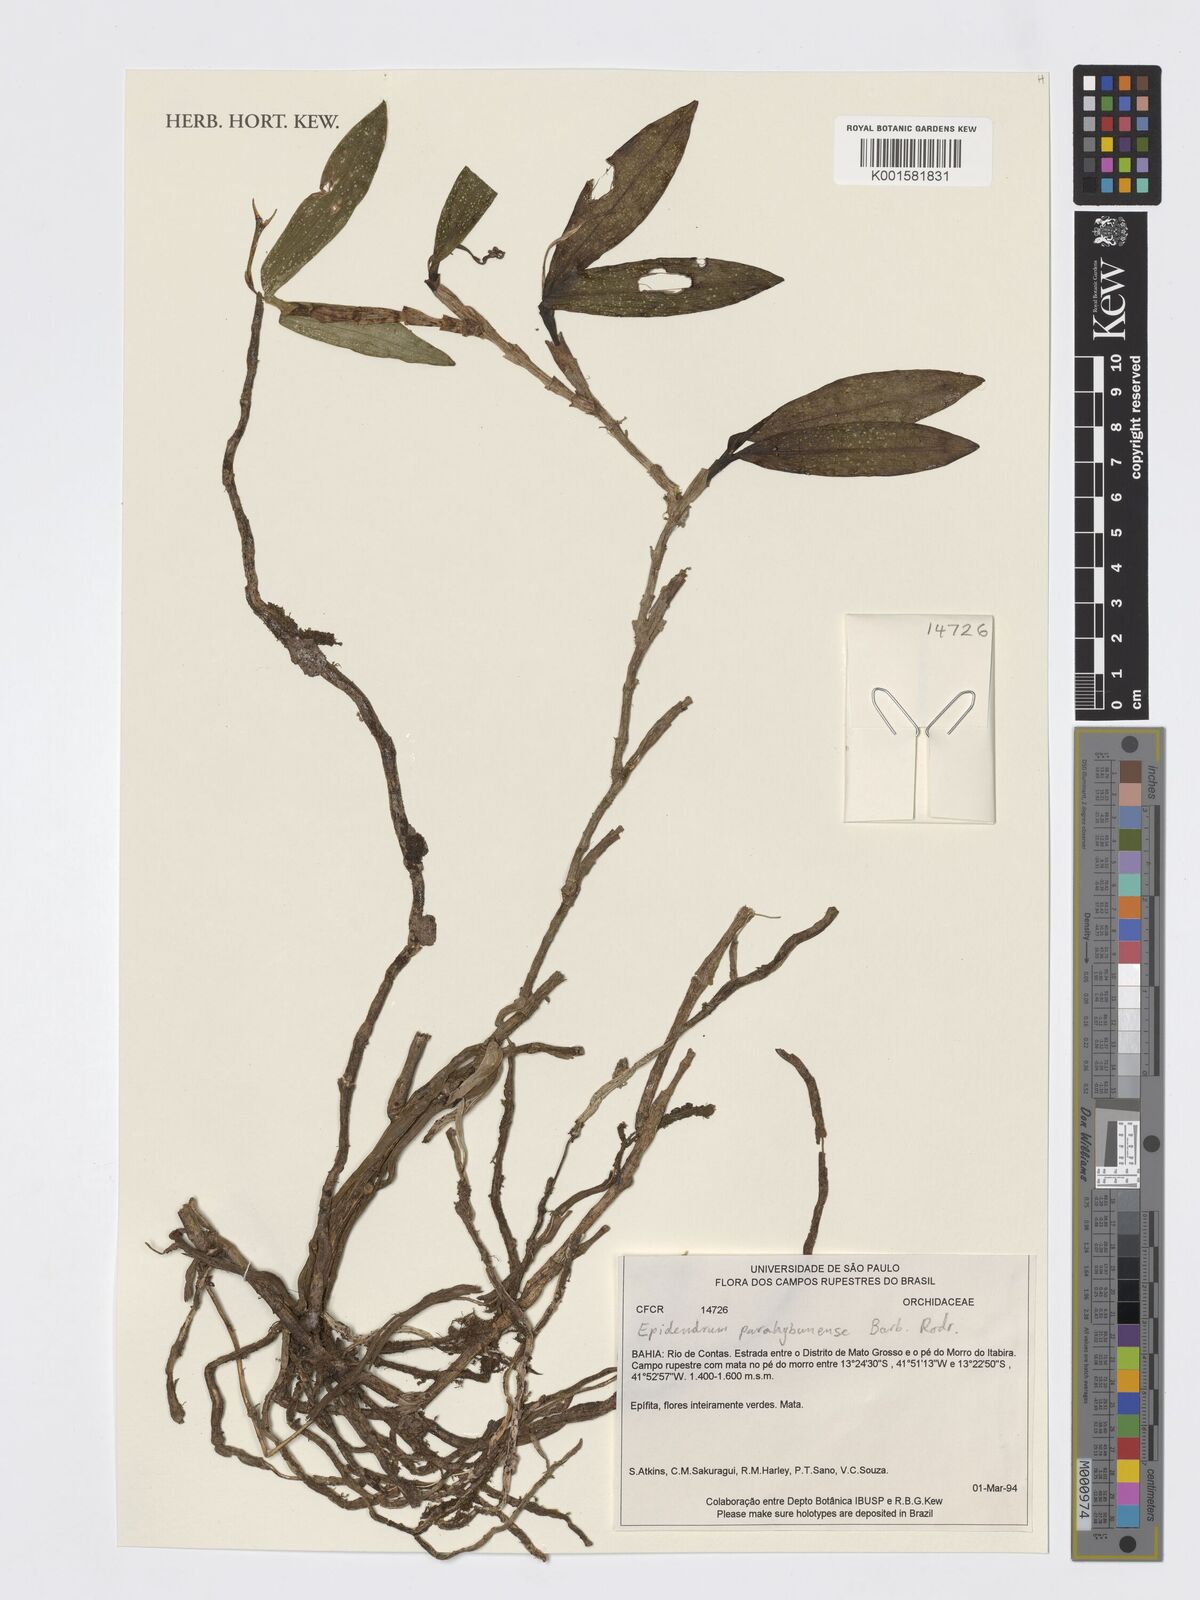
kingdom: Plantae
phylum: Tracheophyta
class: Liliopsida
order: Asparagales
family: Orchidaceae
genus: Epidendrum
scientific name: Epidendrum parahybunense
